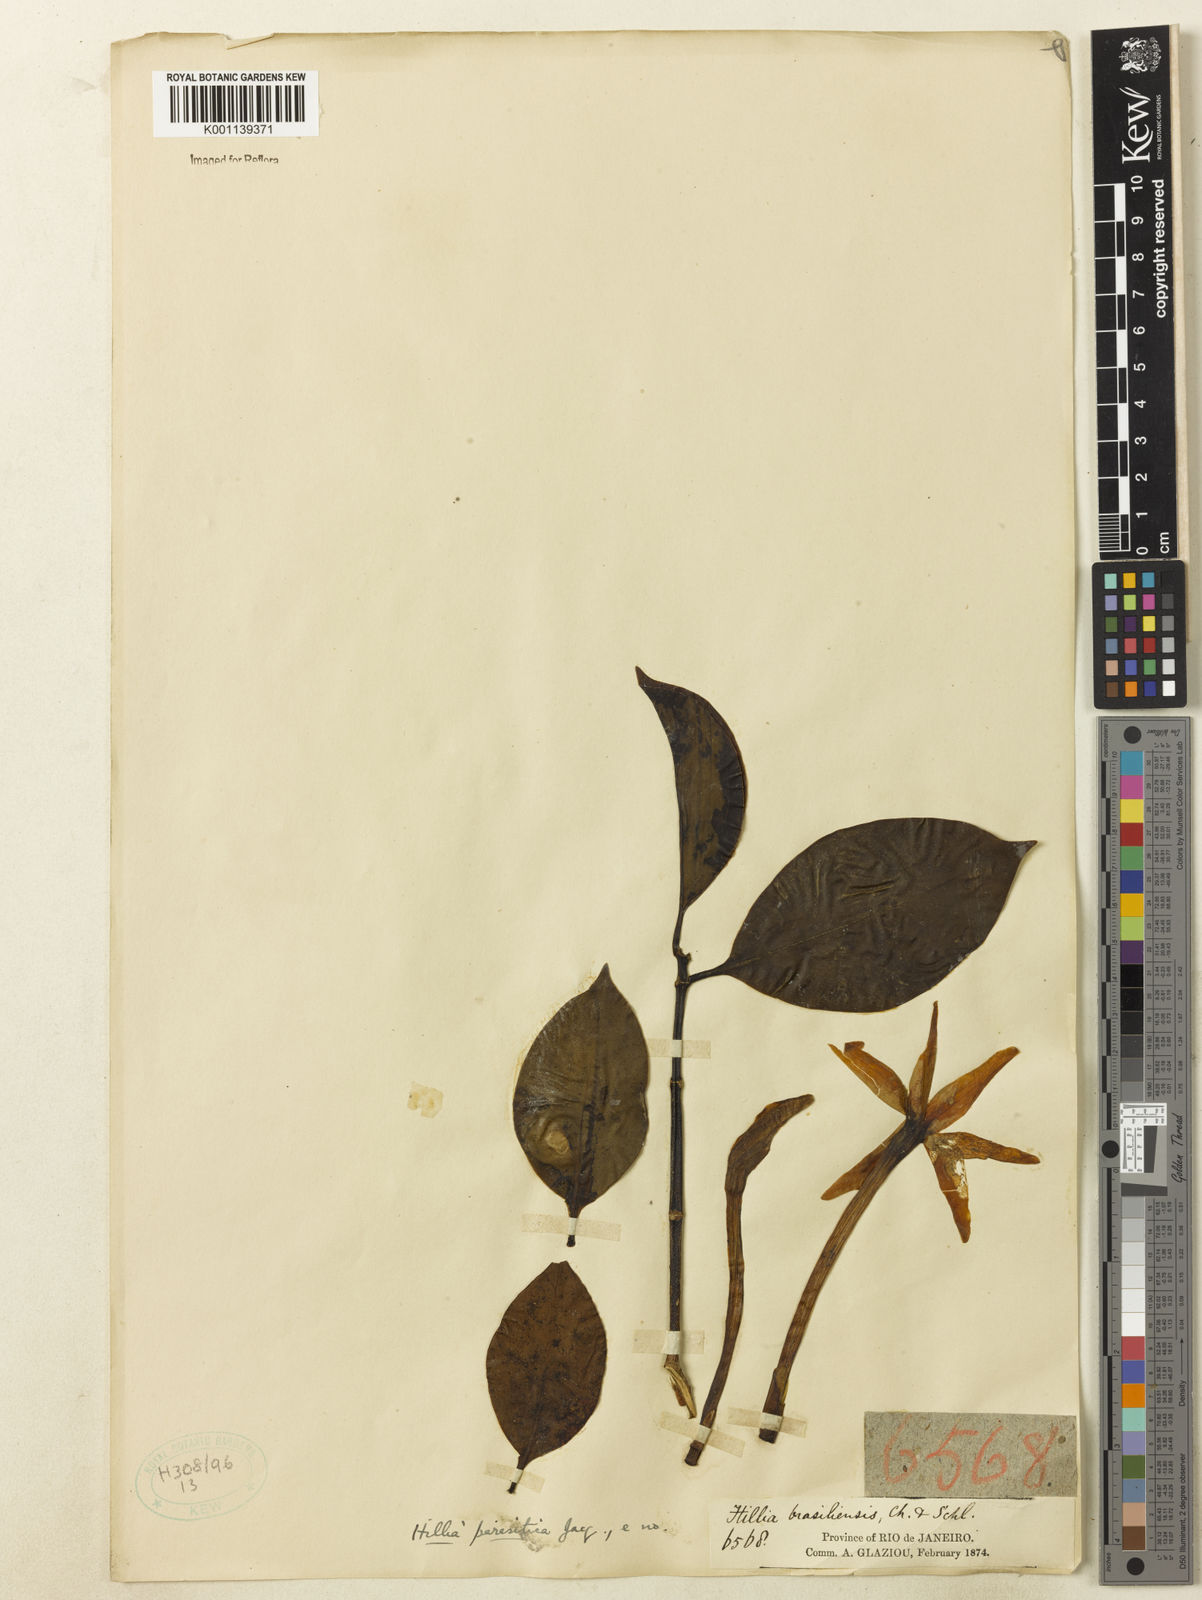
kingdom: Plantae
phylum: Tracheophyta
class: Magnoliopsida
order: Gentianales
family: Rubiaceae
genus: Hillia
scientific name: Hillia parasitica
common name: Morning star
